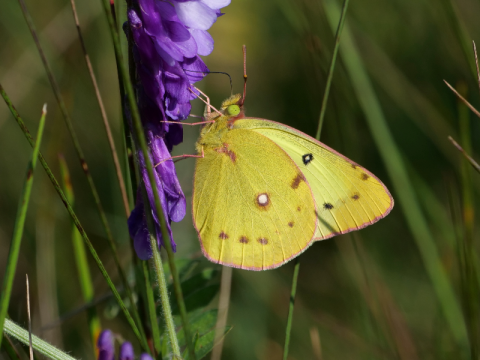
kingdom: Animalia
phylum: Arthropoda
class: Insecta
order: Lepidoptera
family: Pieridae
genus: Colias
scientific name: Colias philodice
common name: Clouded Sulphur
